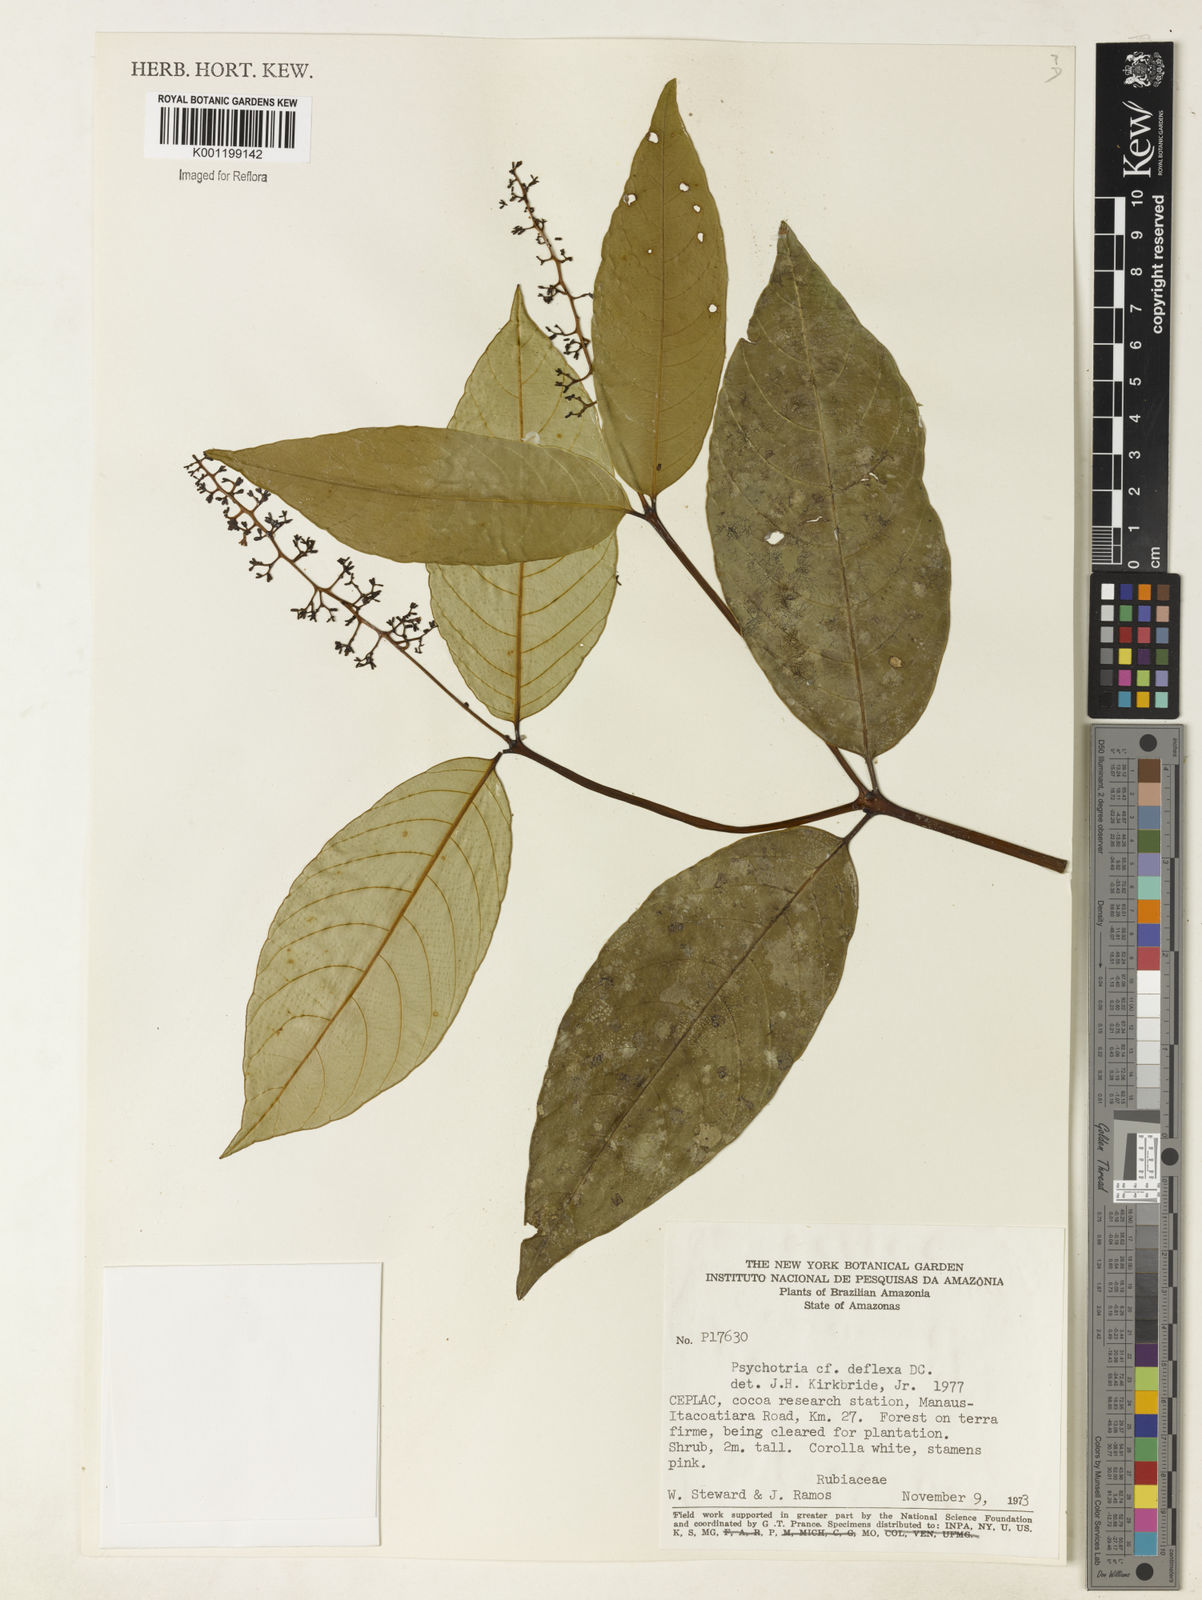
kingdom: Plantae
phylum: Tracheophyta
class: Magnoliopsida
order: Gentianales
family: Rubiaceae
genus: Psychotria
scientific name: Psychotria
